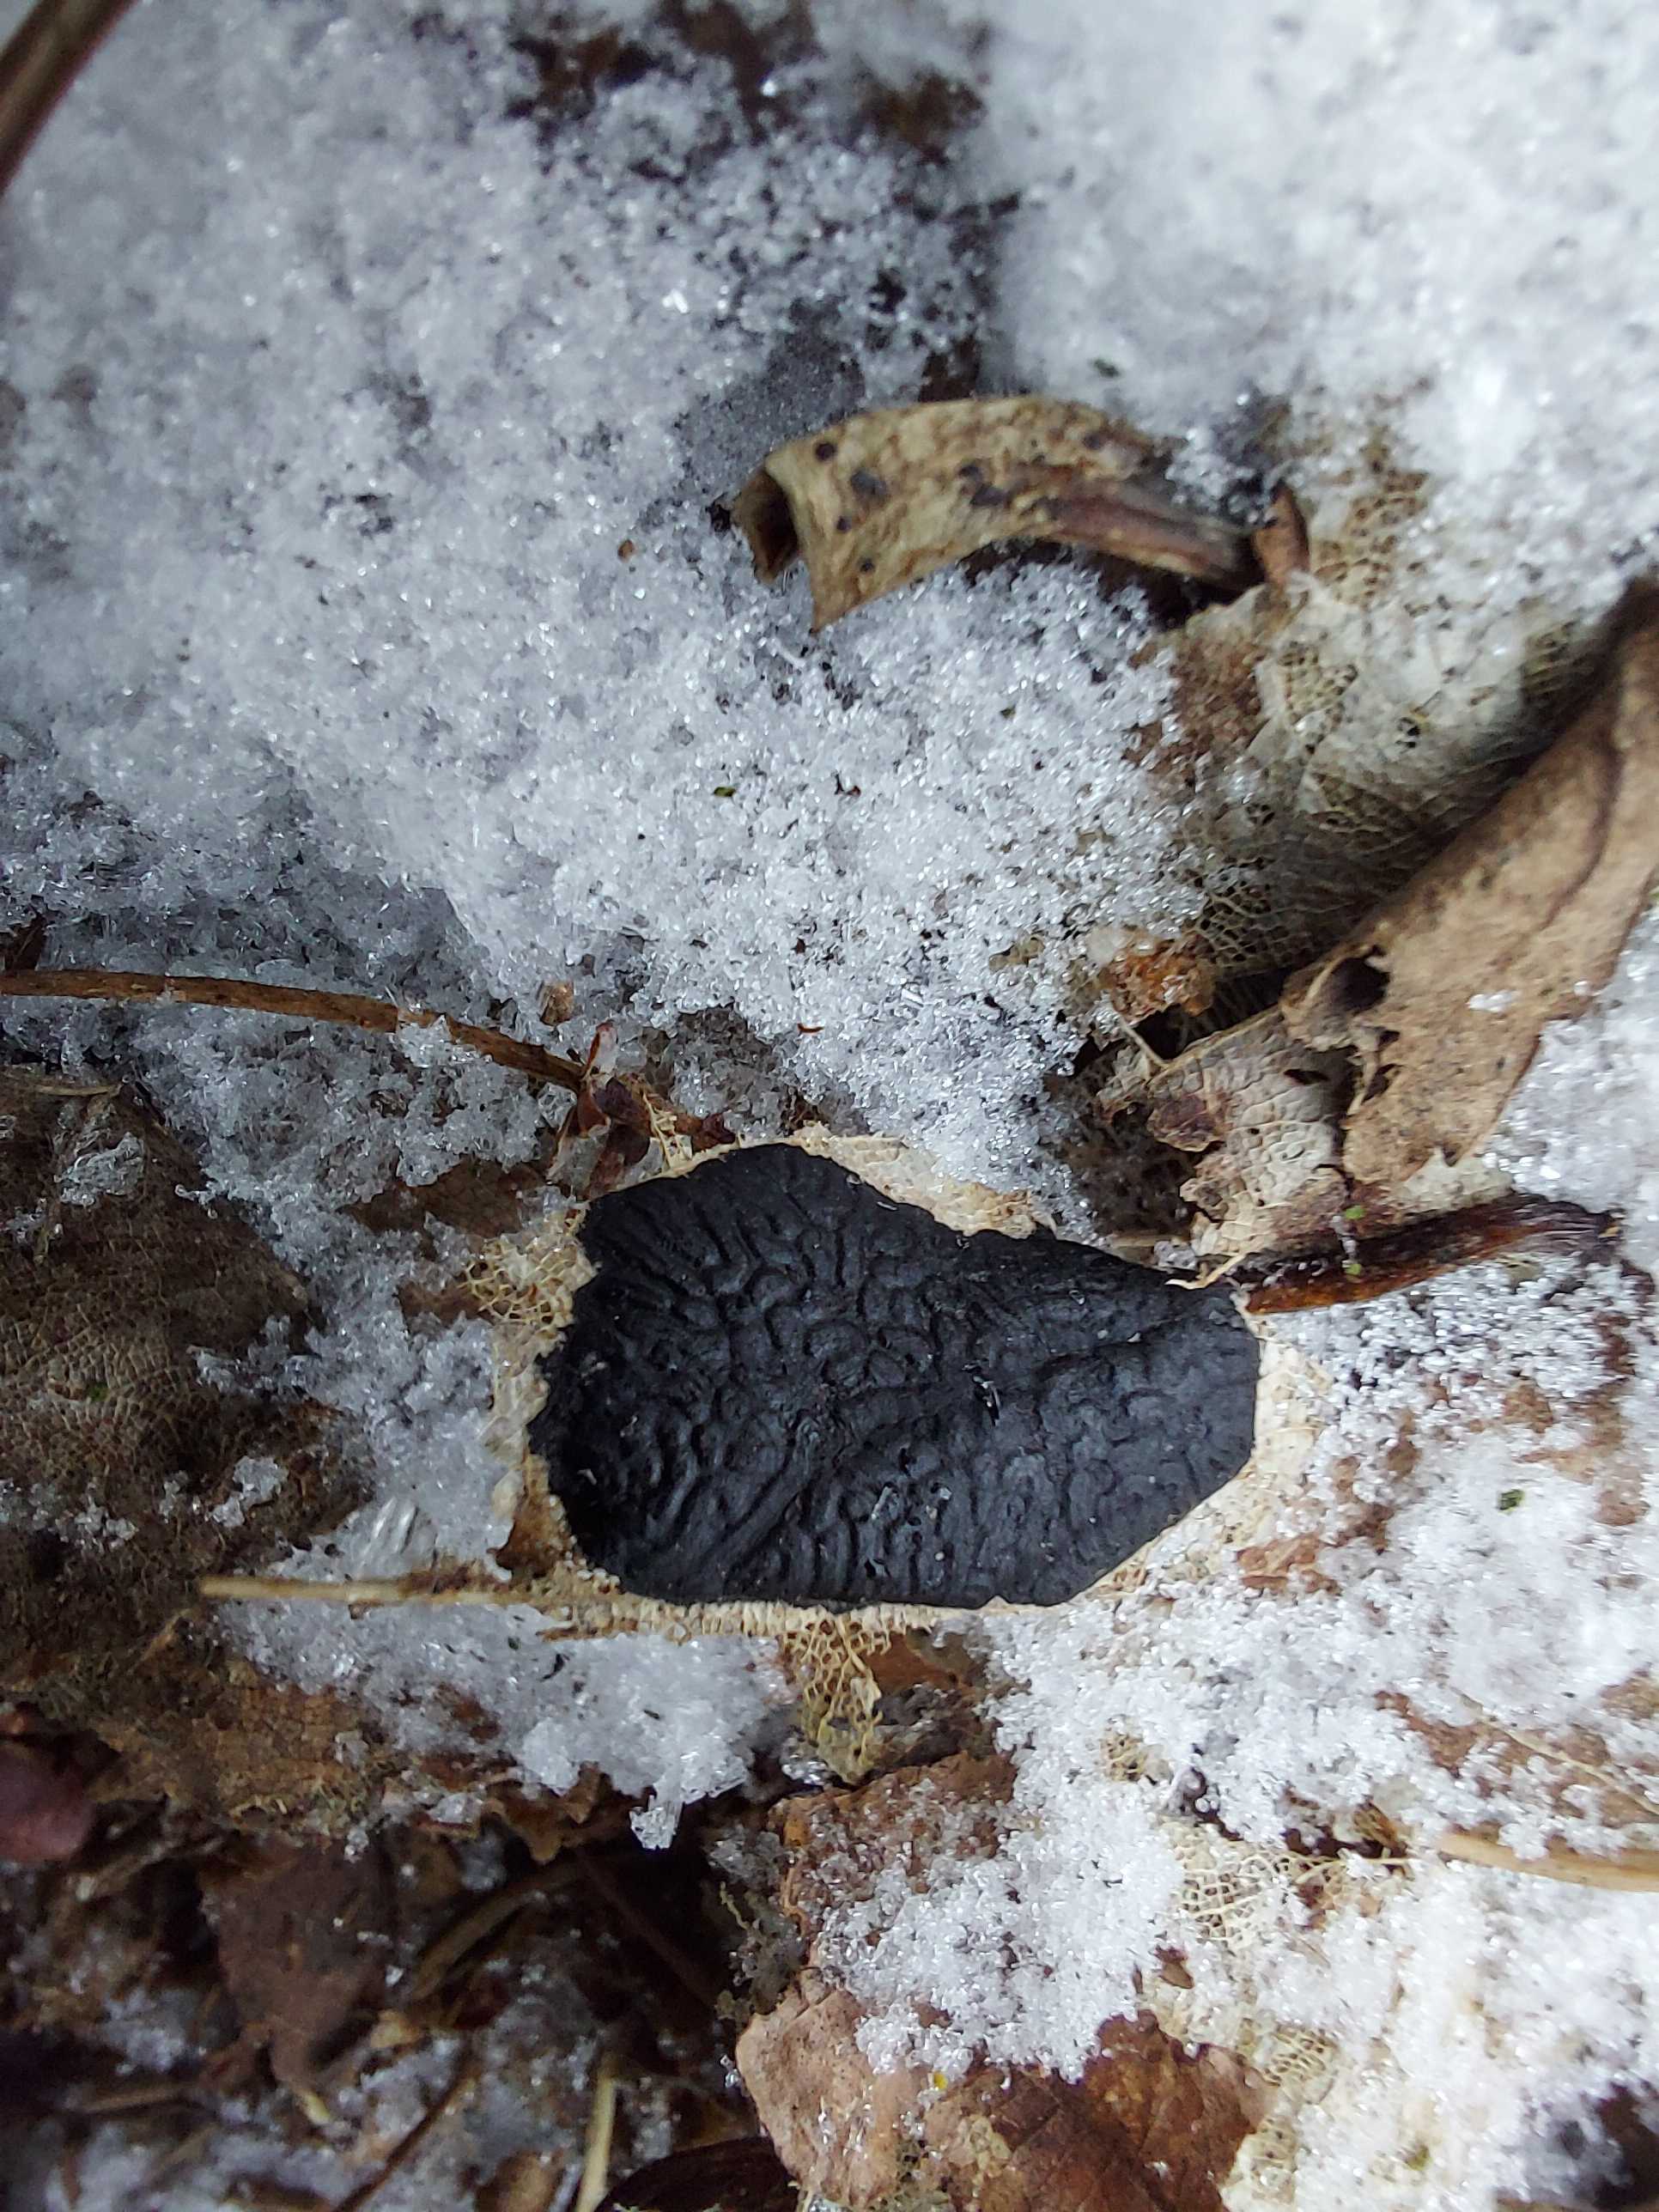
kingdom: Fungi
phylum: Ascomycota
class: Leotiomycetes
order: Rhytismatales
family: Rhytismataceae
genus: Rhytisma
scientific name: Rhytisma acerinum
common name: ahorn-rynkeplet
